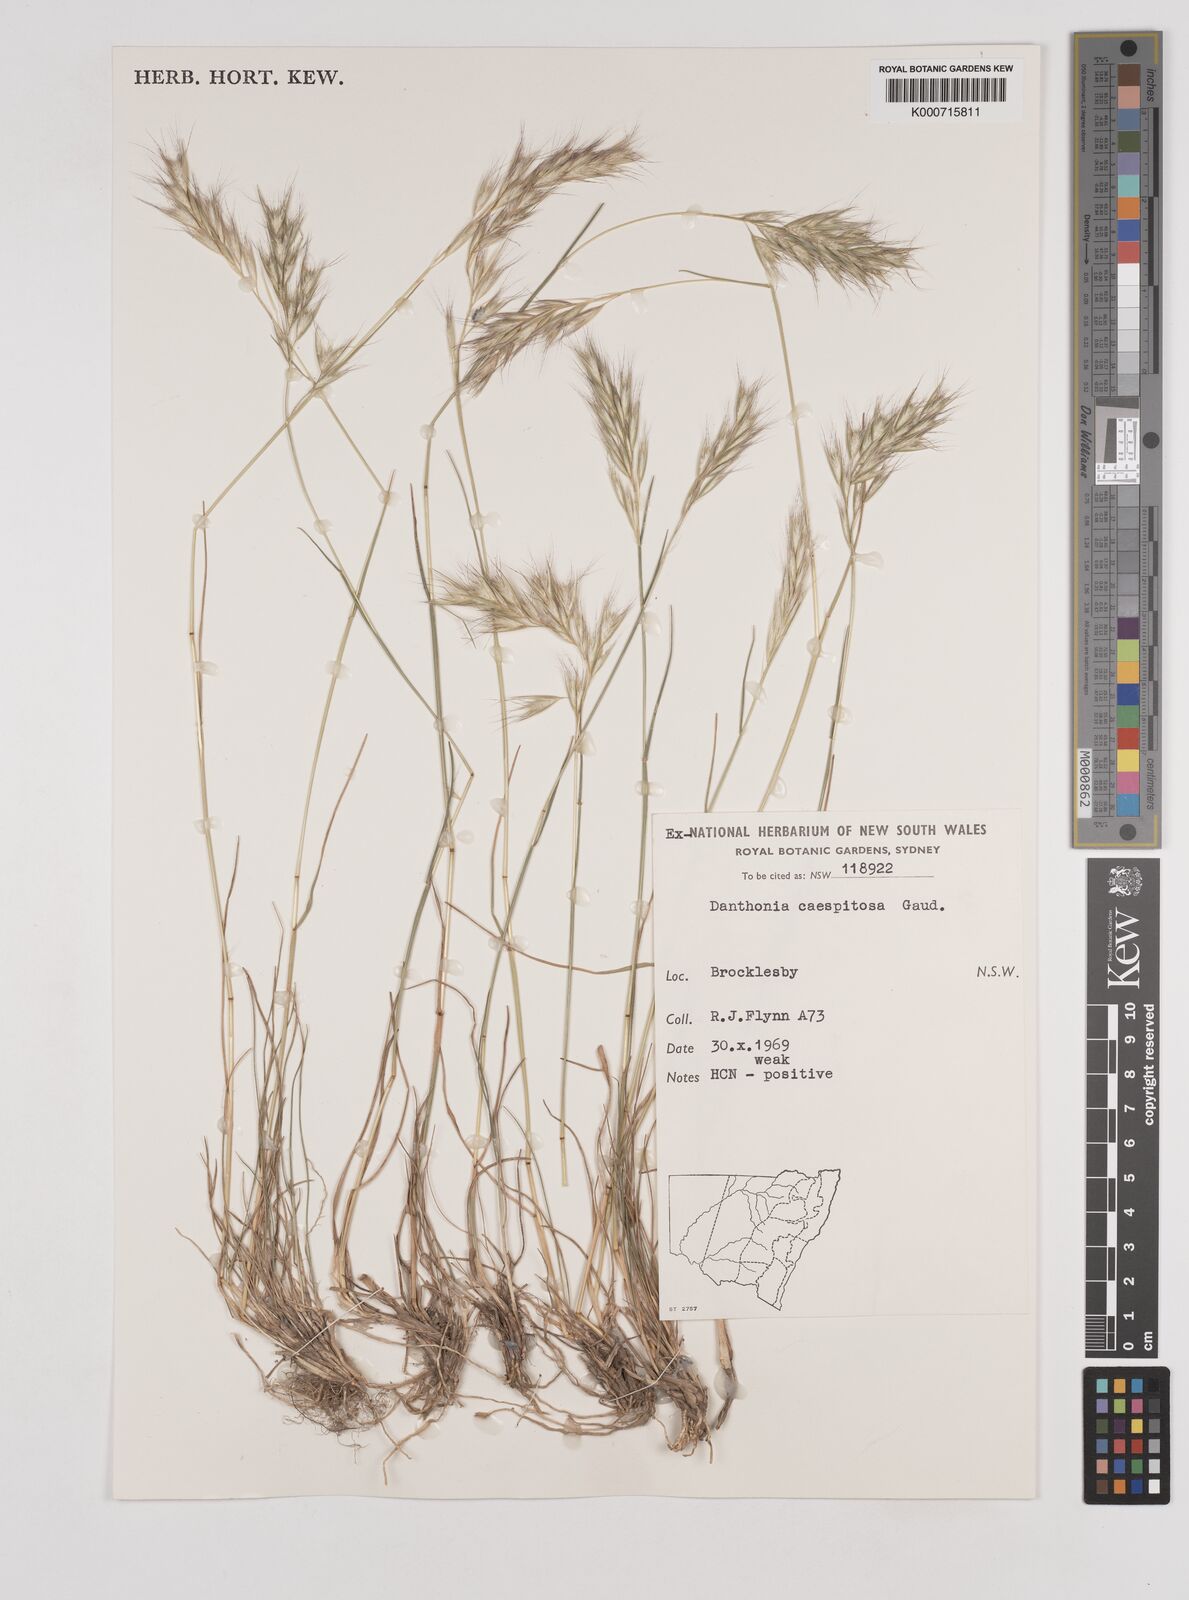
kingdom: Plantae
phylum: Tracheophyta
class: Liliopsida
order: Poales
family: Poaceae
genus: Rytidosperma
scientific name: Rytidosperma caespitosum
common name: Tufted wallaby grass
